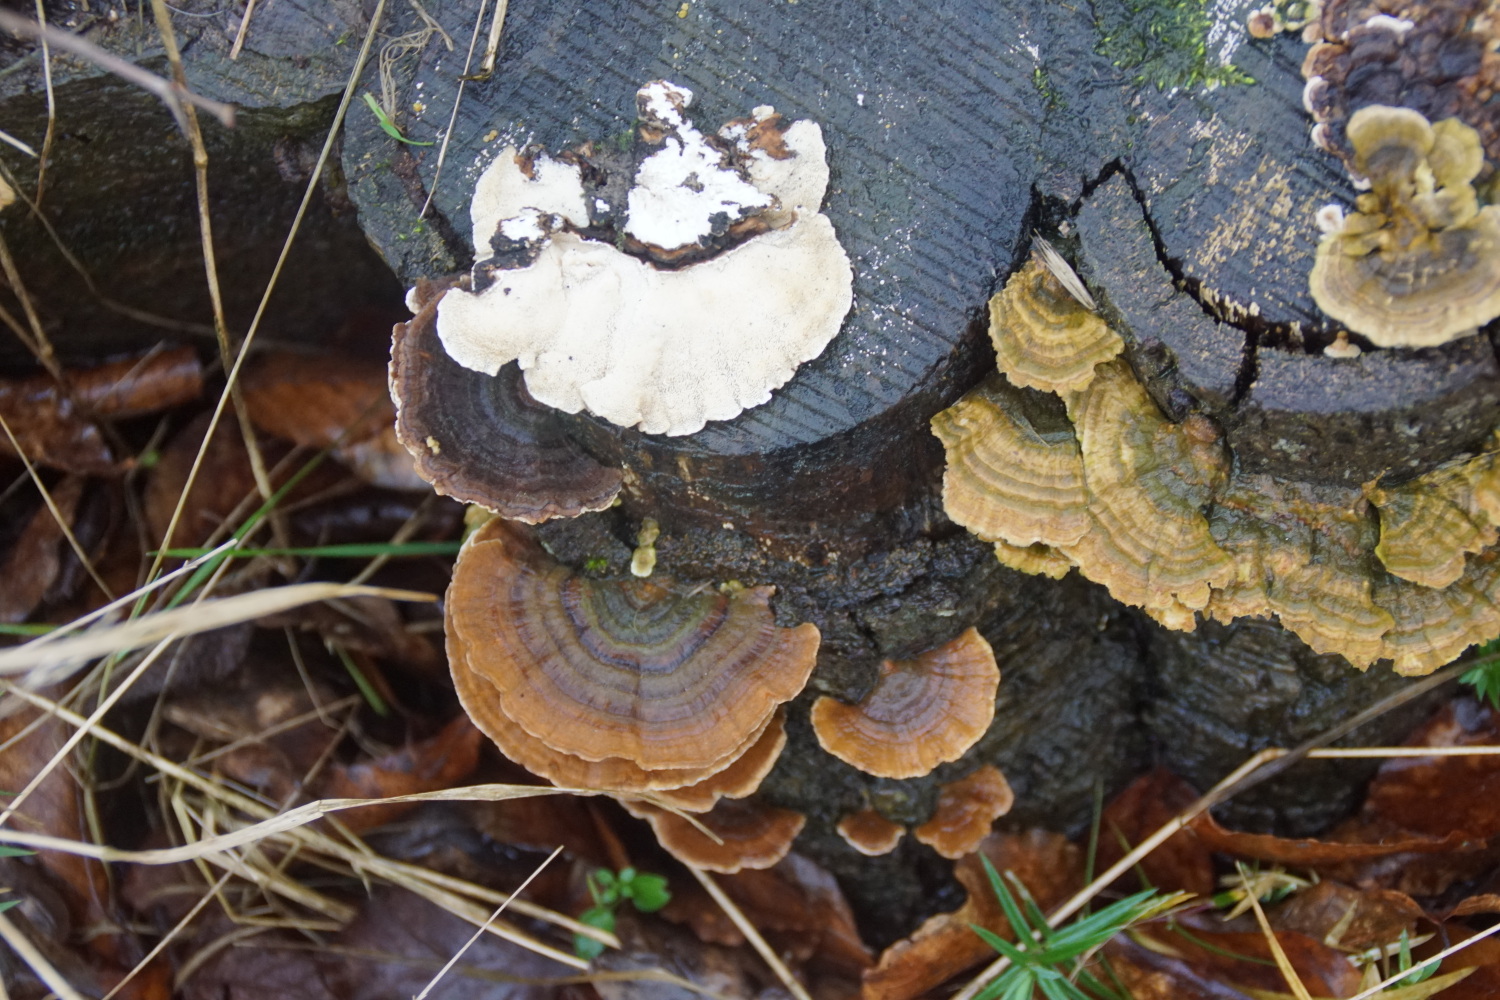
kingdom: Fungi
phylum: Basidiomycota
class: Agaricomycetes
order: Polyporales
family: Polyporaceae
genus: Trametes
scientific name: Trametes versicolor
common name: broget læderporesvamp
